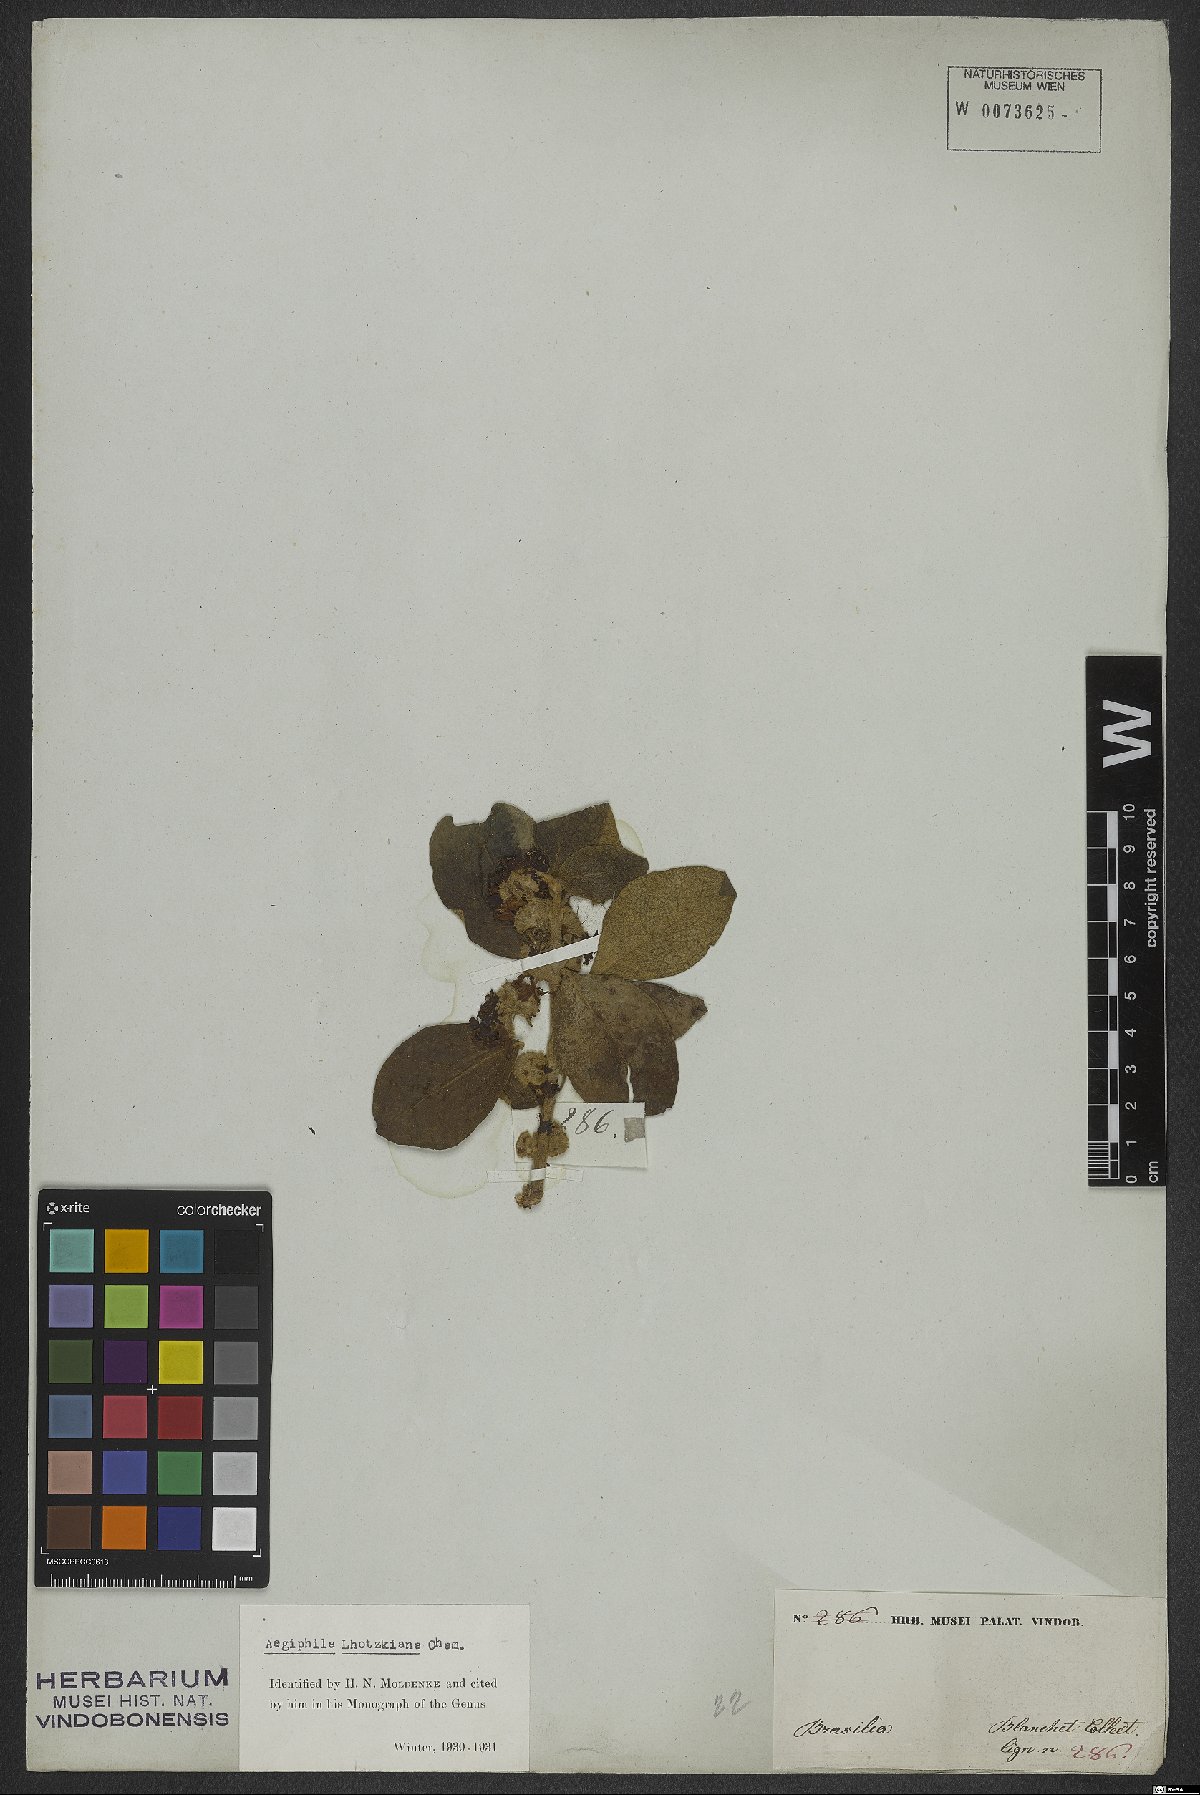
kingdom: Plantae
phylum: Tracheophyta
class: Magnoliopsida
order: Lamiales
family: Lamiaceae
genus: Aegiphila
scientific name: Aegiphila lhotskiana
